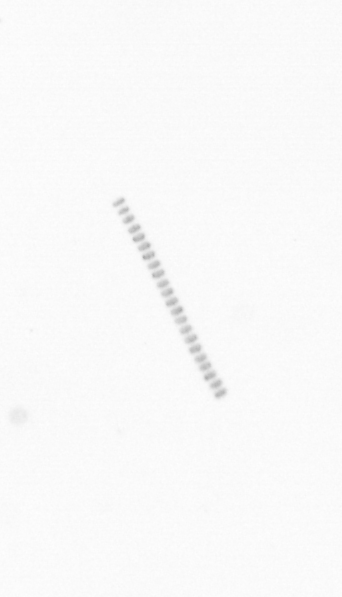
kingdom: Chromista
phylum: Ochrophyta
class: Bacillariophyceae
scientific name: Bacillariophyceae
